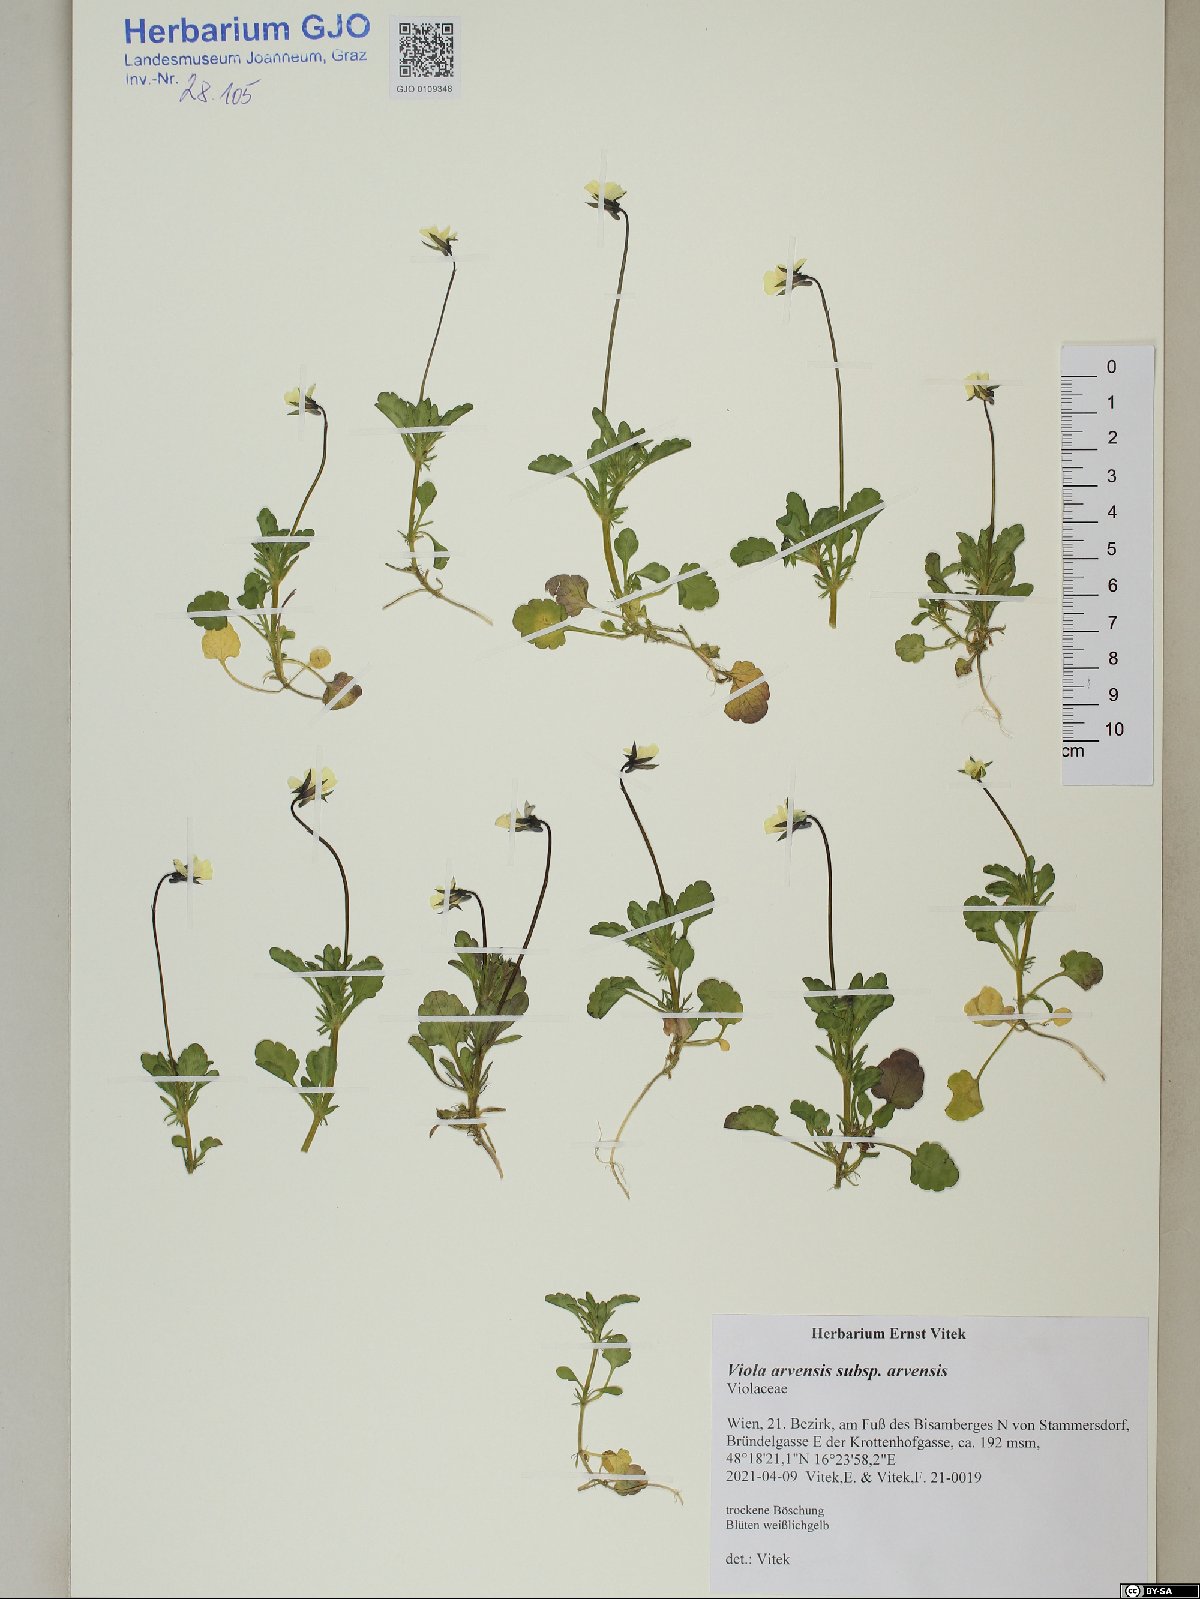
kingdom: Plantae
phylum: Tracheophyta
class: Magnoliopsida
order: Malpighiales
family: Violaceae
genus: Viola
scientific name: Viola arvensis
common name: Field pansy
